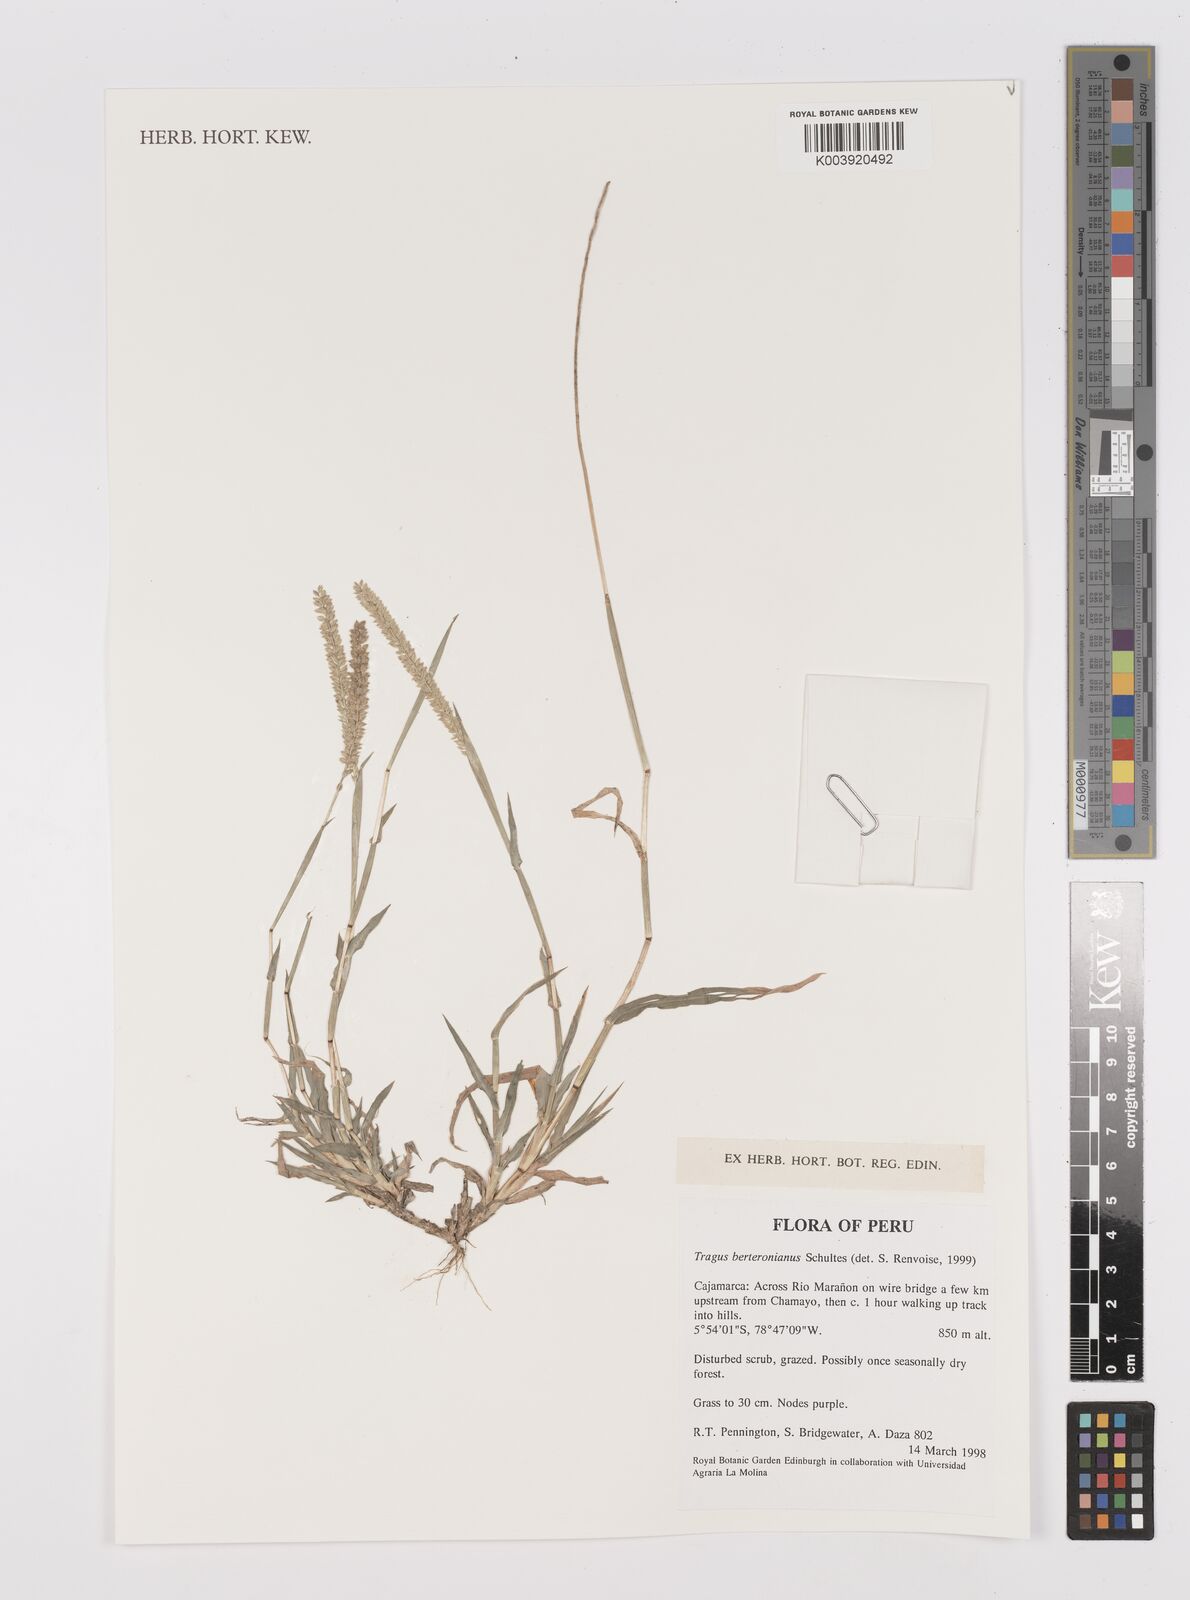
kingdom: Plantae
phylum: Tracheophyta
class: Liliopsida
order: Poales
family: Poaceae
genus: Tragus
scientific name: Tragus berteronianus
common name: African bur-grass
